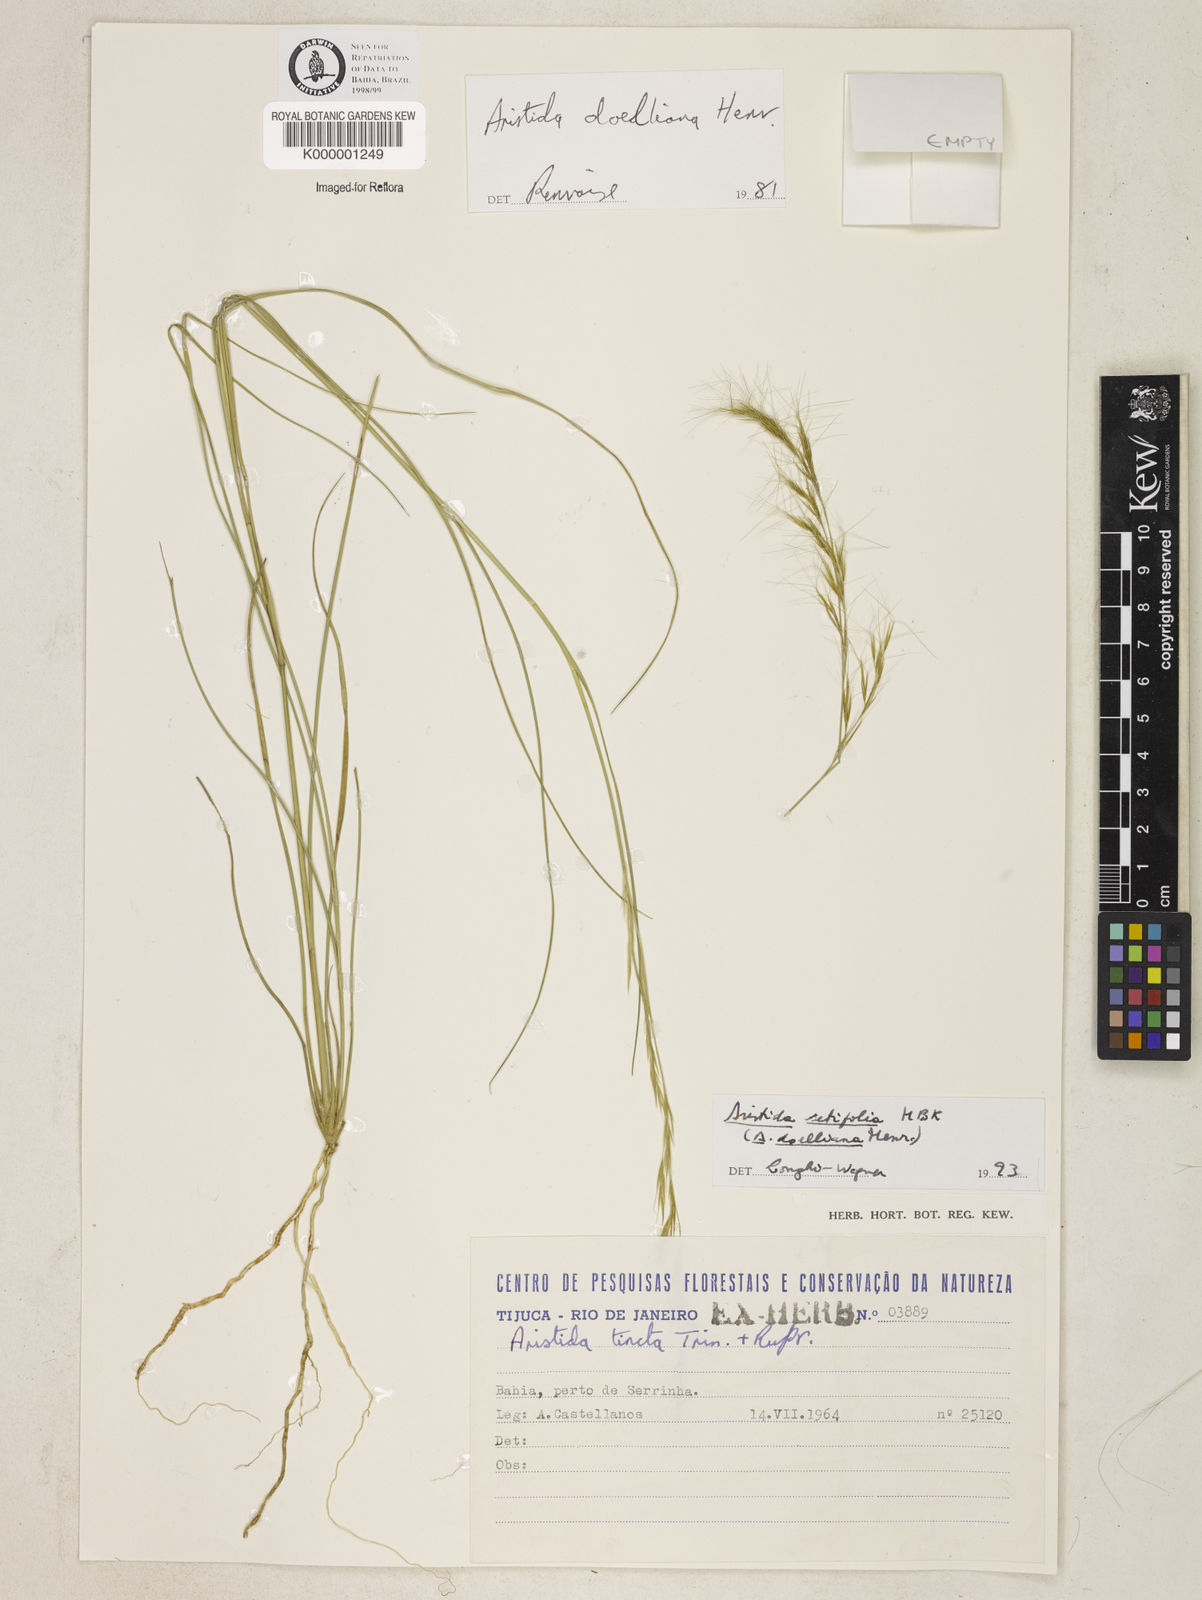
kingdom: Plantae
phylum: Tracheophyta
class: Liliopsida
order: Poales
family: Poaceae
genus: Aristida
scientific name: Aristida setifolia
